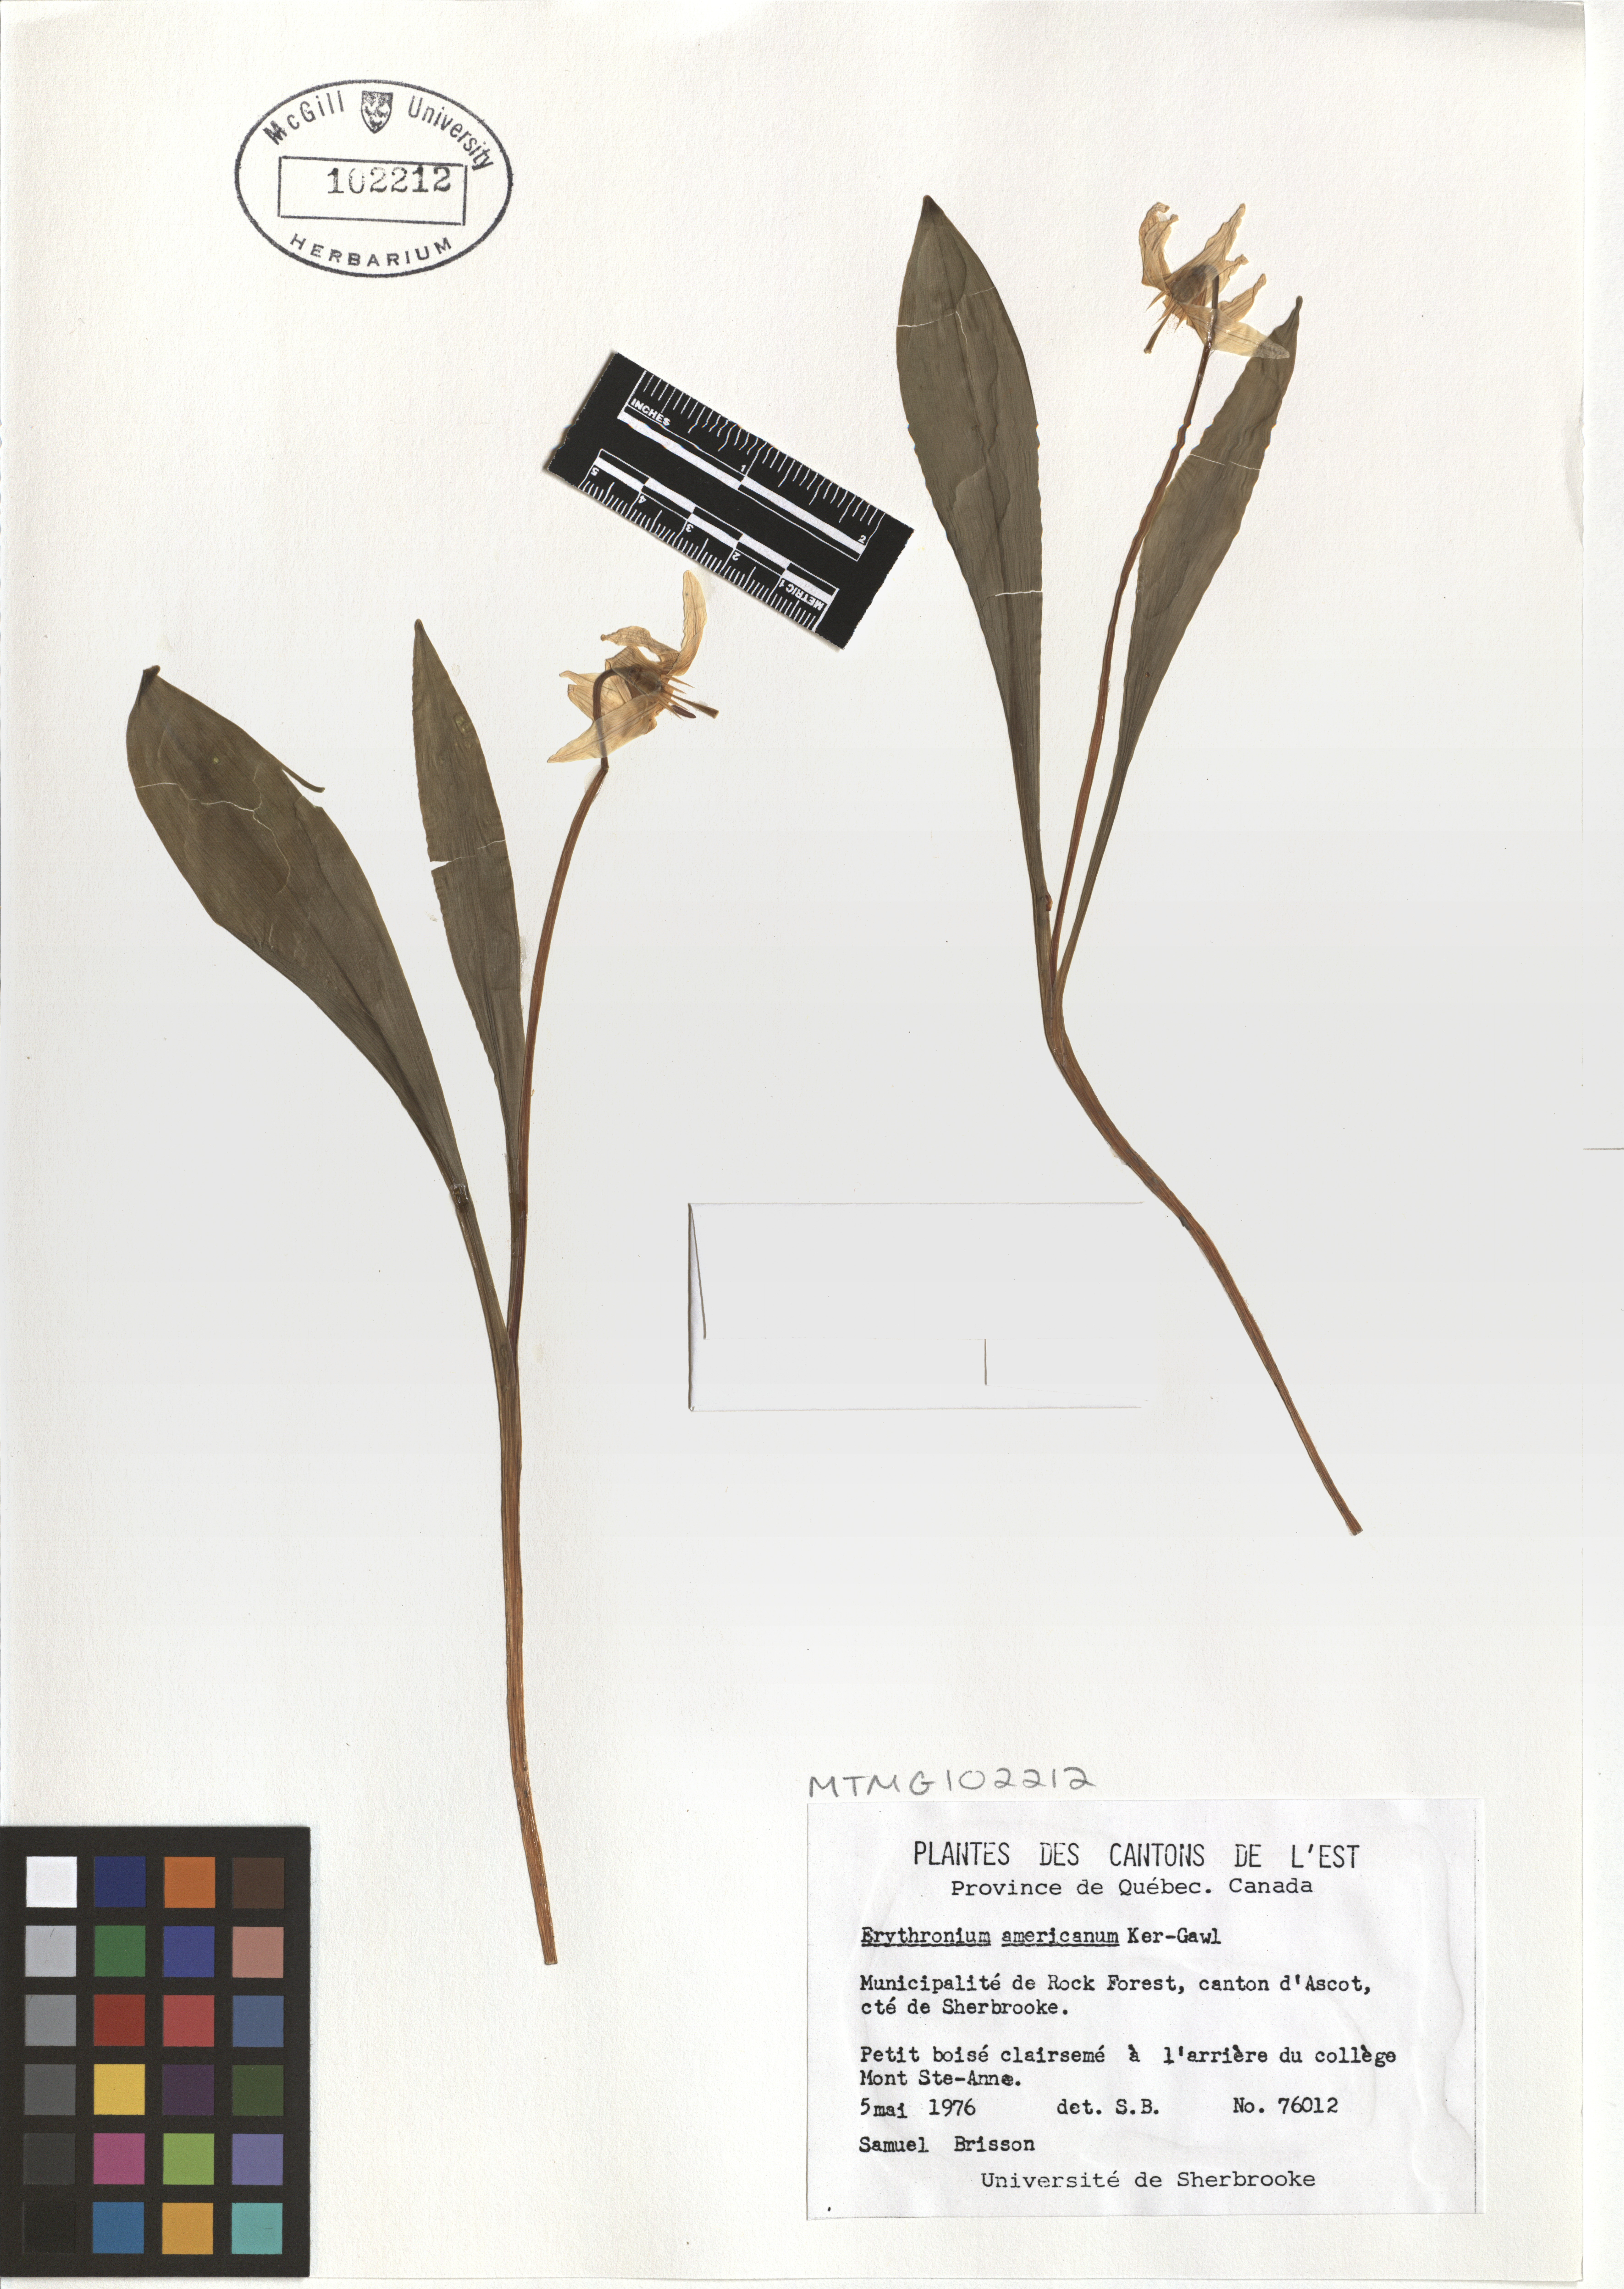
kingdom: Plantae
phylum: Tracheophyta
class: Liliopsida
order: Liliales
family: Liliaceae
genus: Erythronium
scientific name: Erythronium americanum
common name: Yellow adder's-tongue
